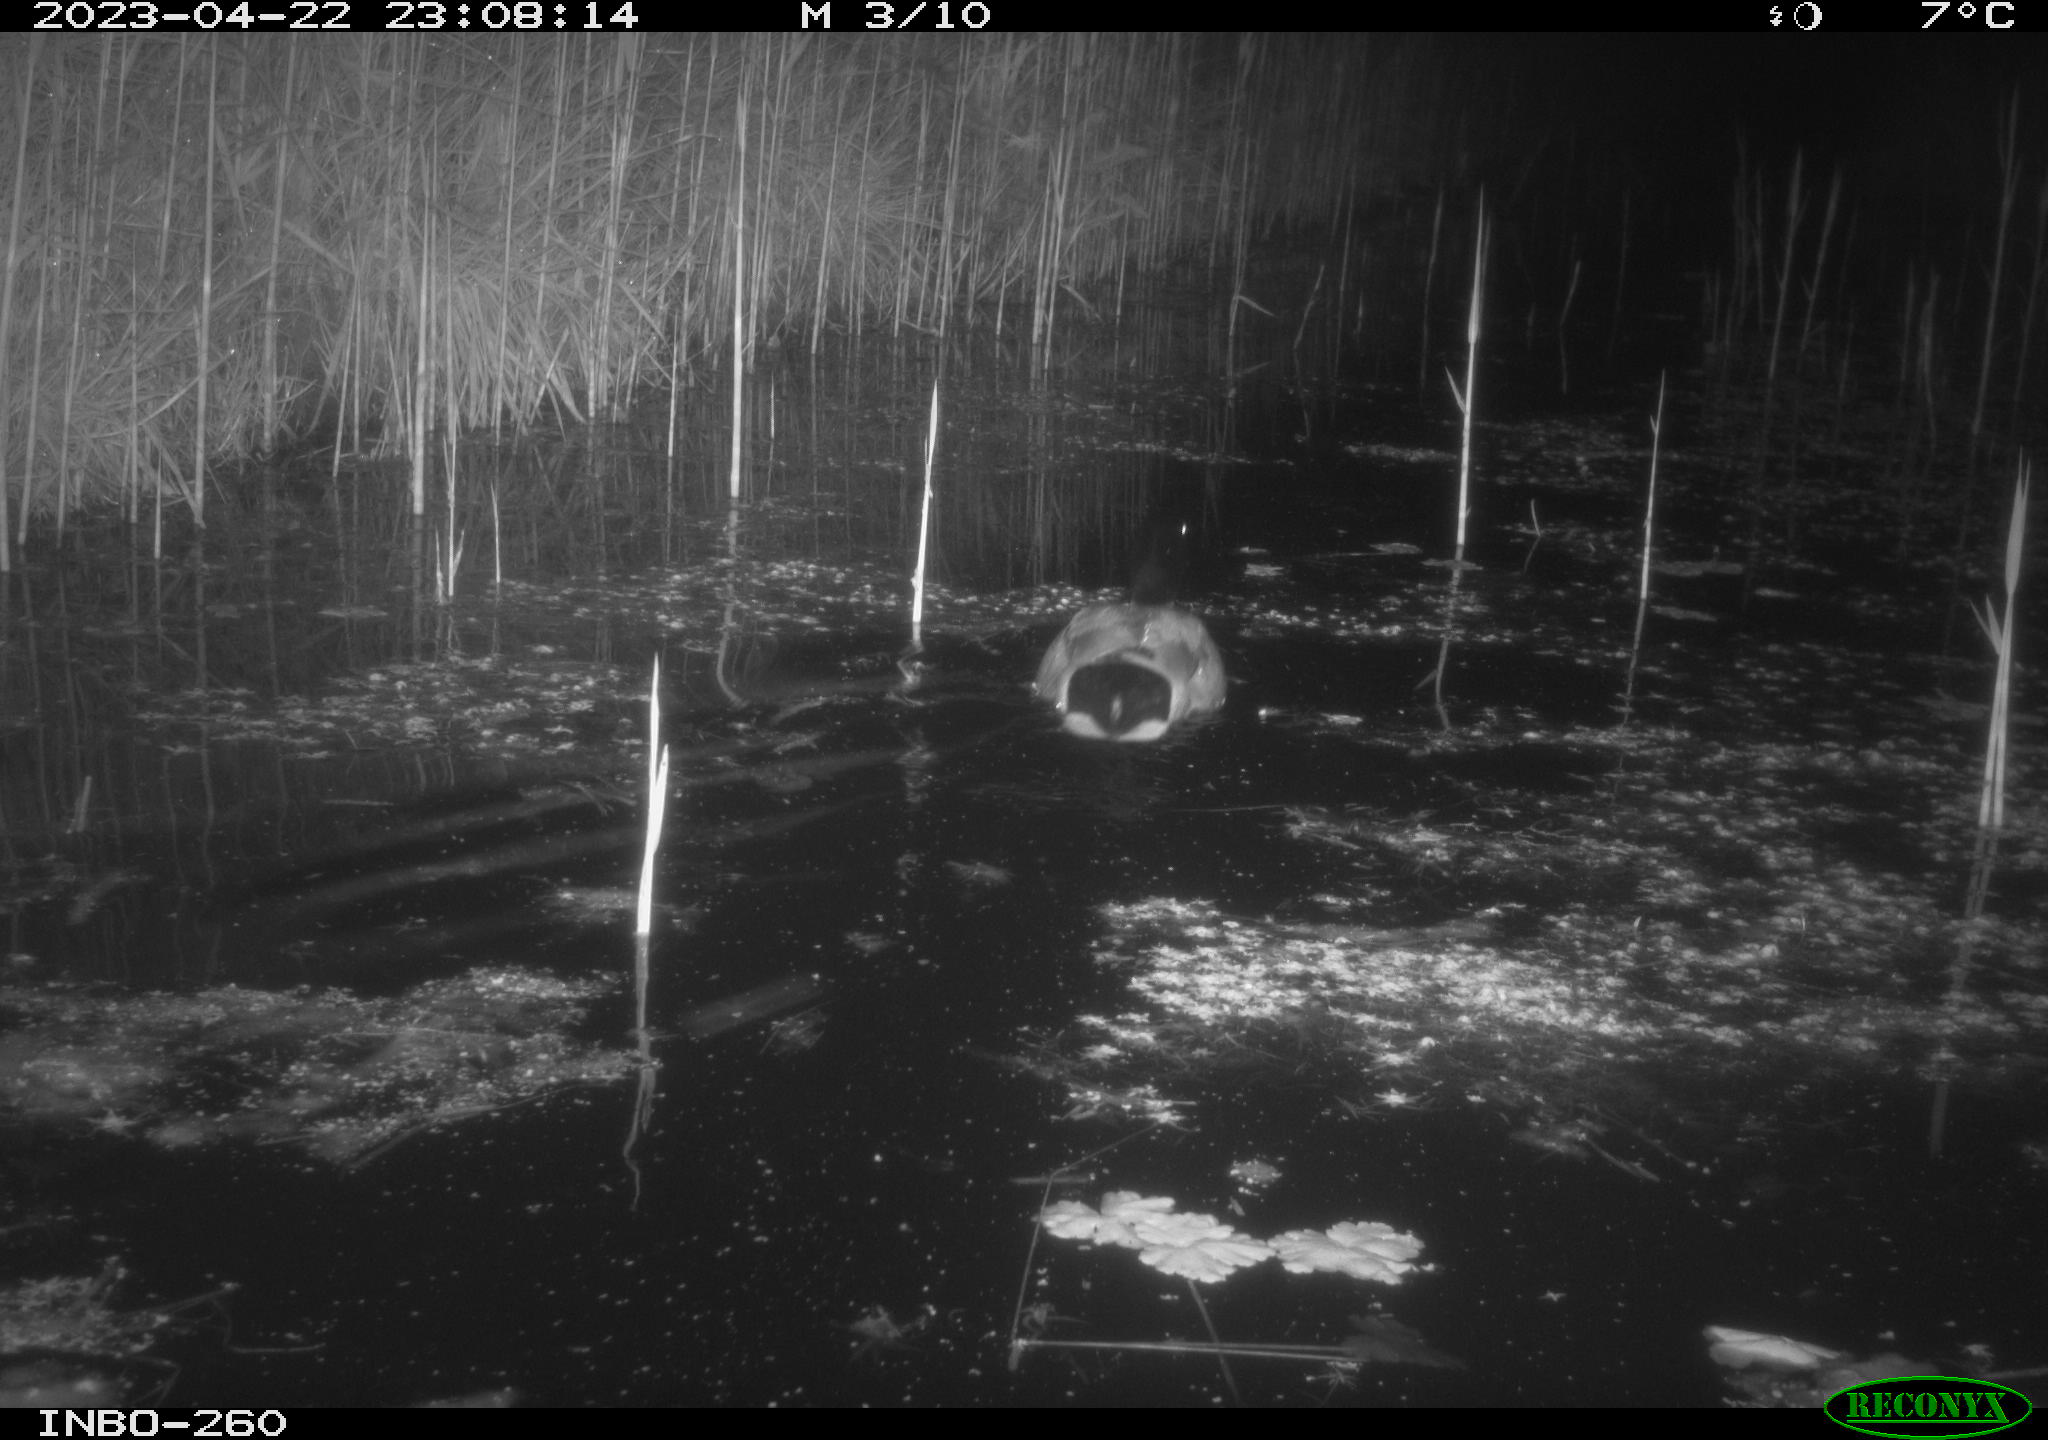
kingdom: Animalia
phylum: Chordata
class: Aves
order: Anseriformes
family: Anatidae
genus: Anas
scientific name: Anas
